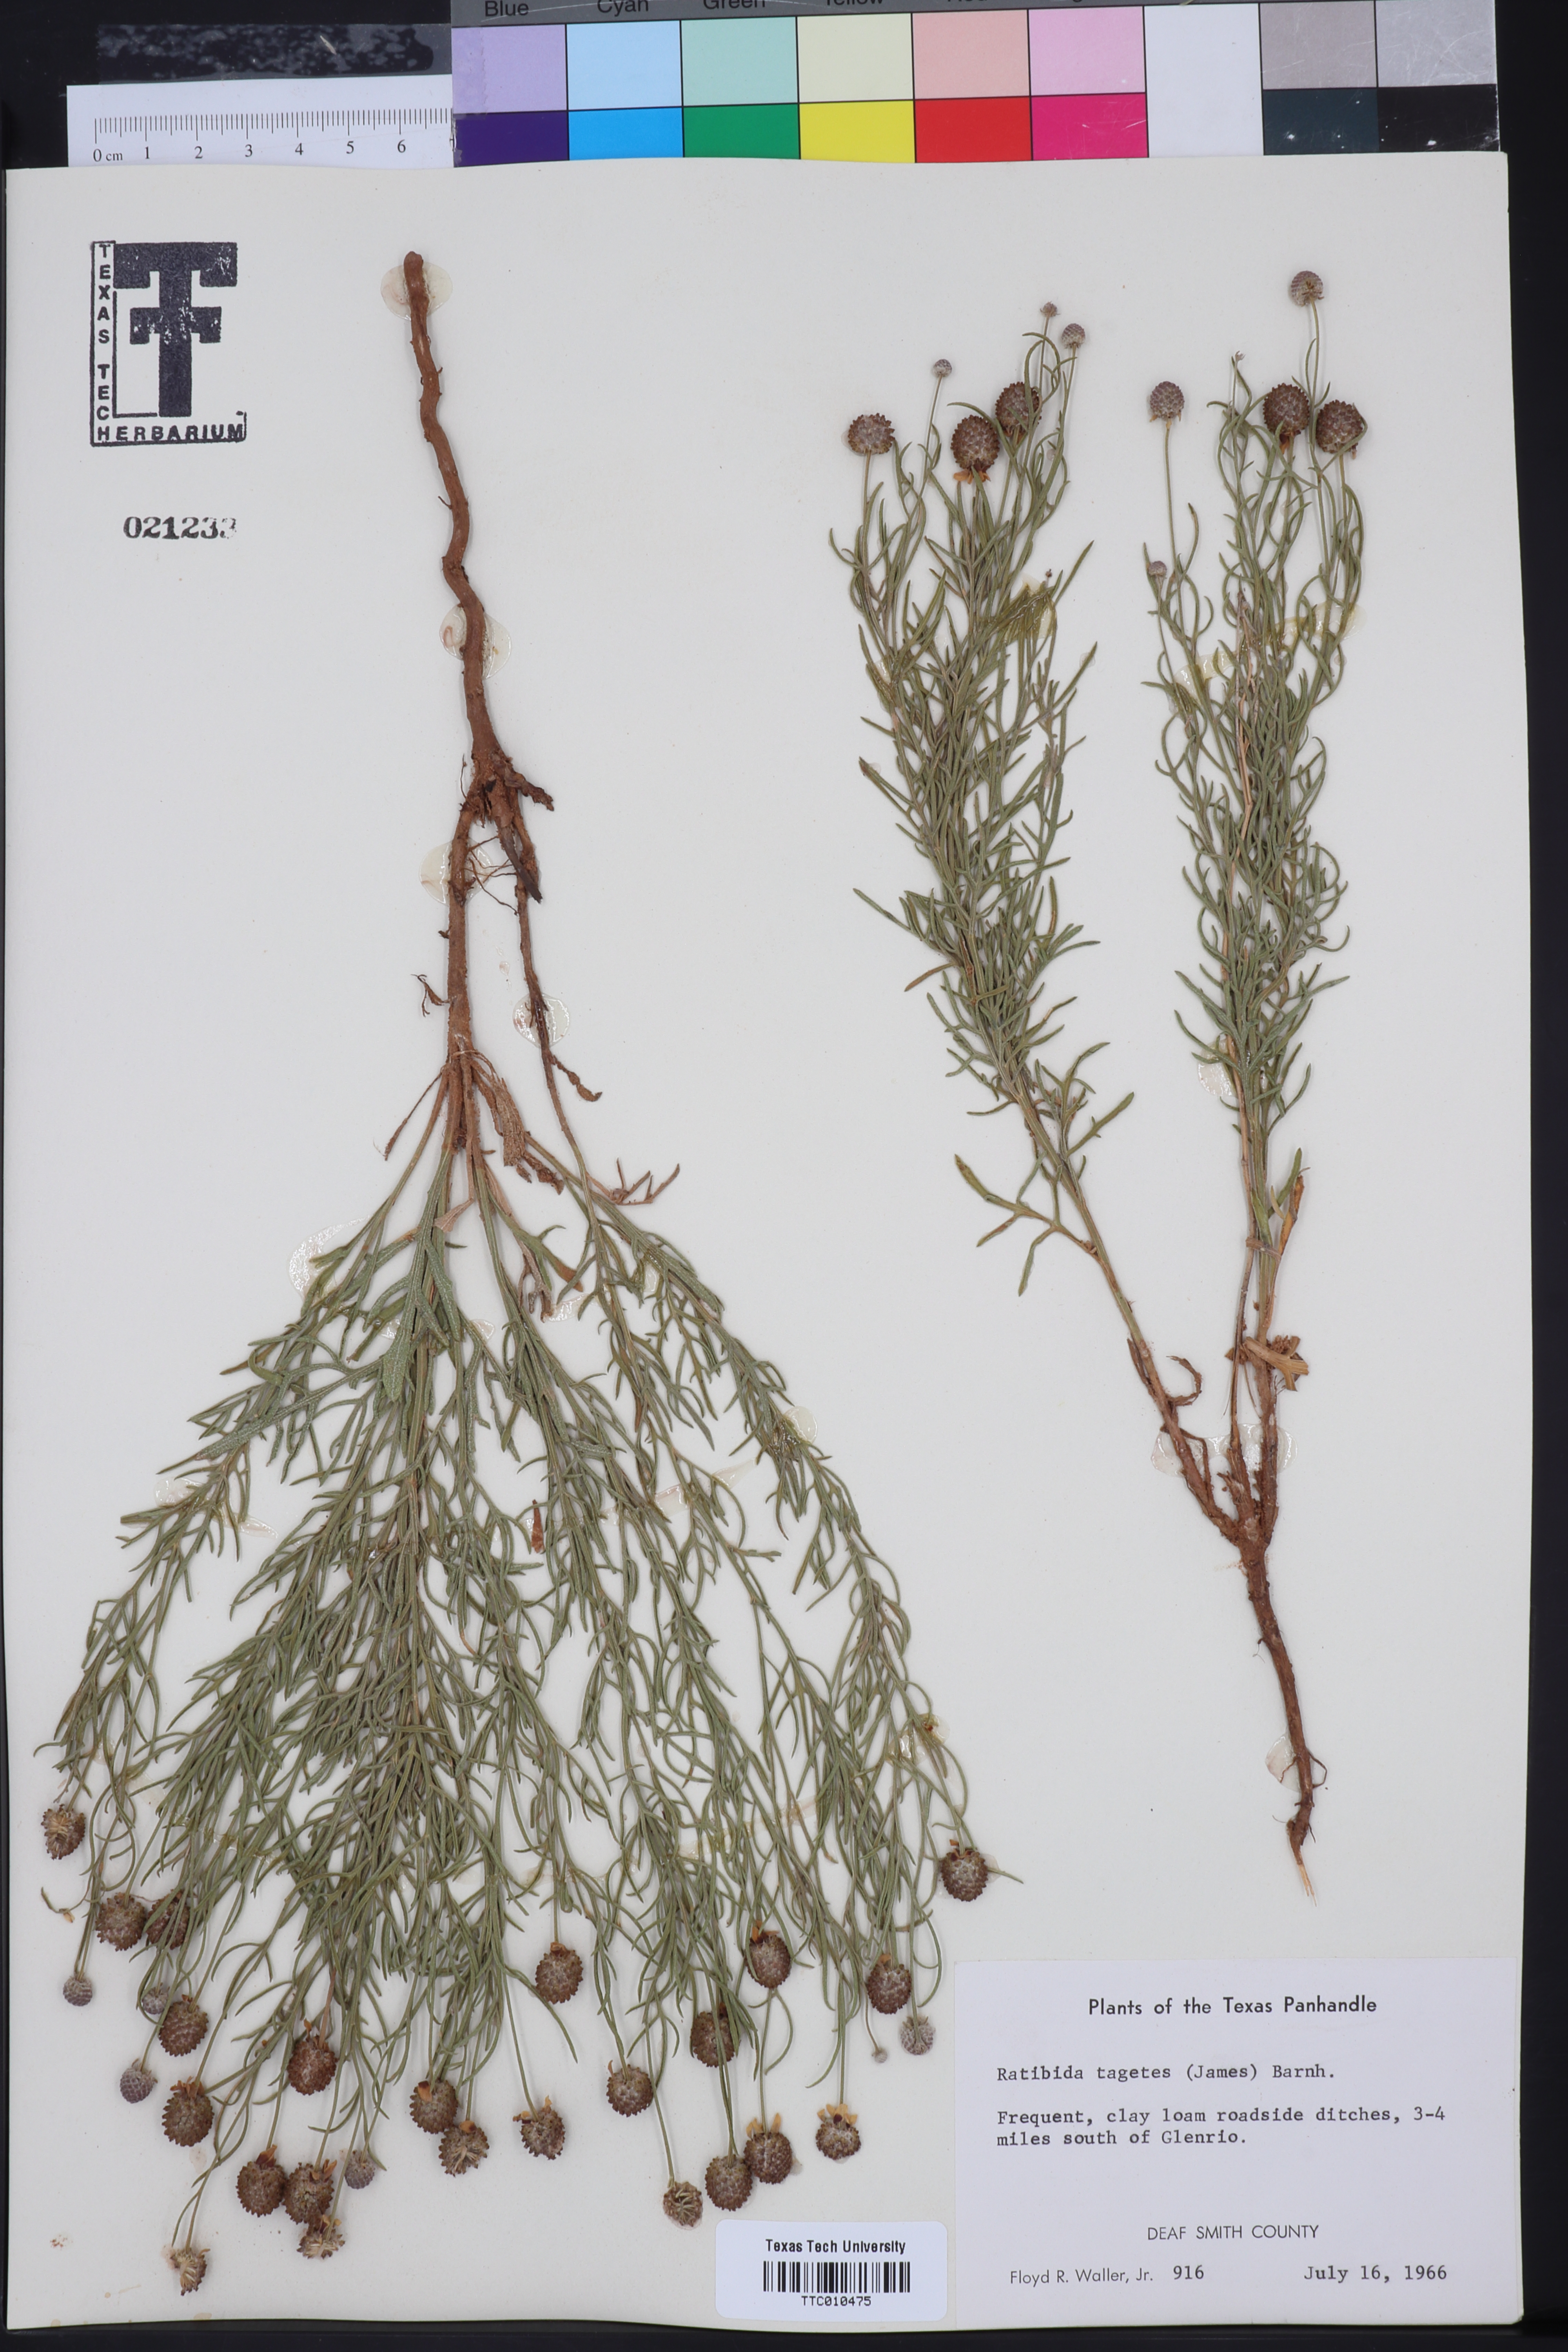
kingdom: Plantae
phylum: Tracheophyta
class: Magnoliopsida
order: Asterales
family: Asteraceae
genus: Ratibida
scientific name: Ratibida tagetes
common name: Green mexican-hat
